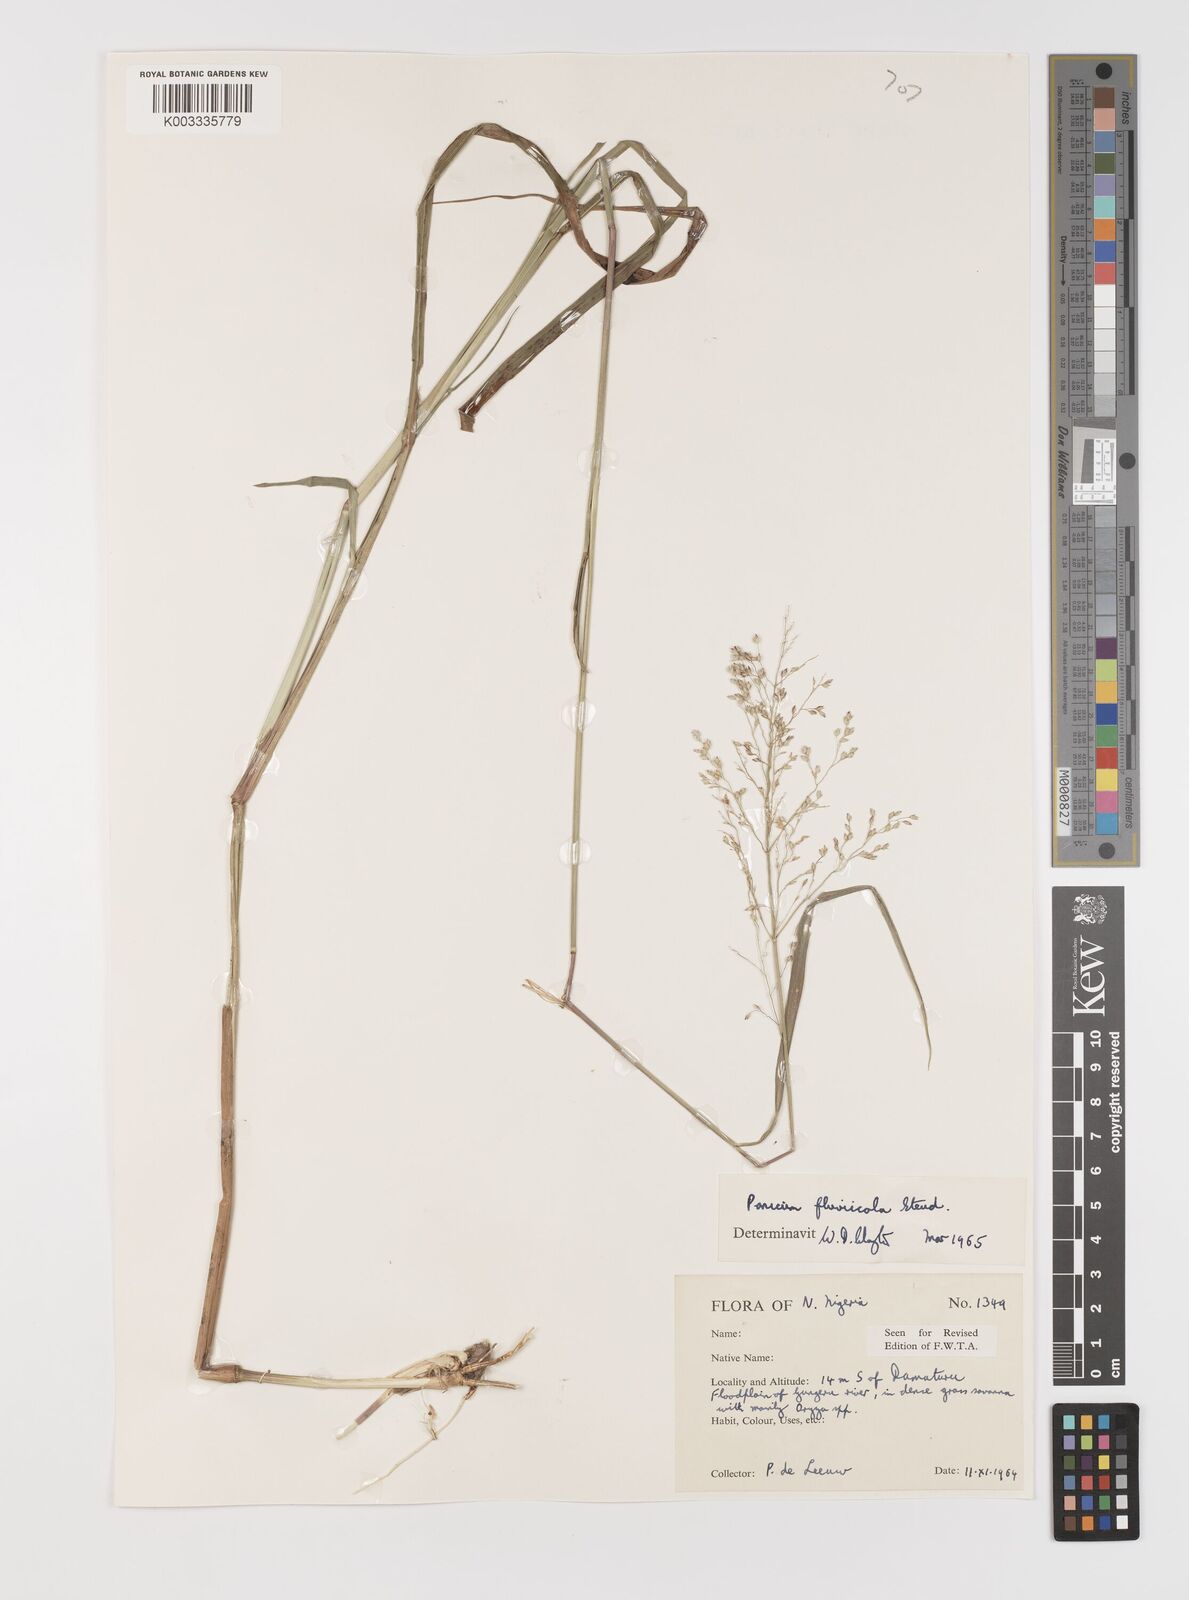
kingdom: Plantae
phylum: Tracheophyta
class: Liliopsida
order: Poales
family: Poaceae
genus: Panicum
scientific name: Panicum fluviicola
